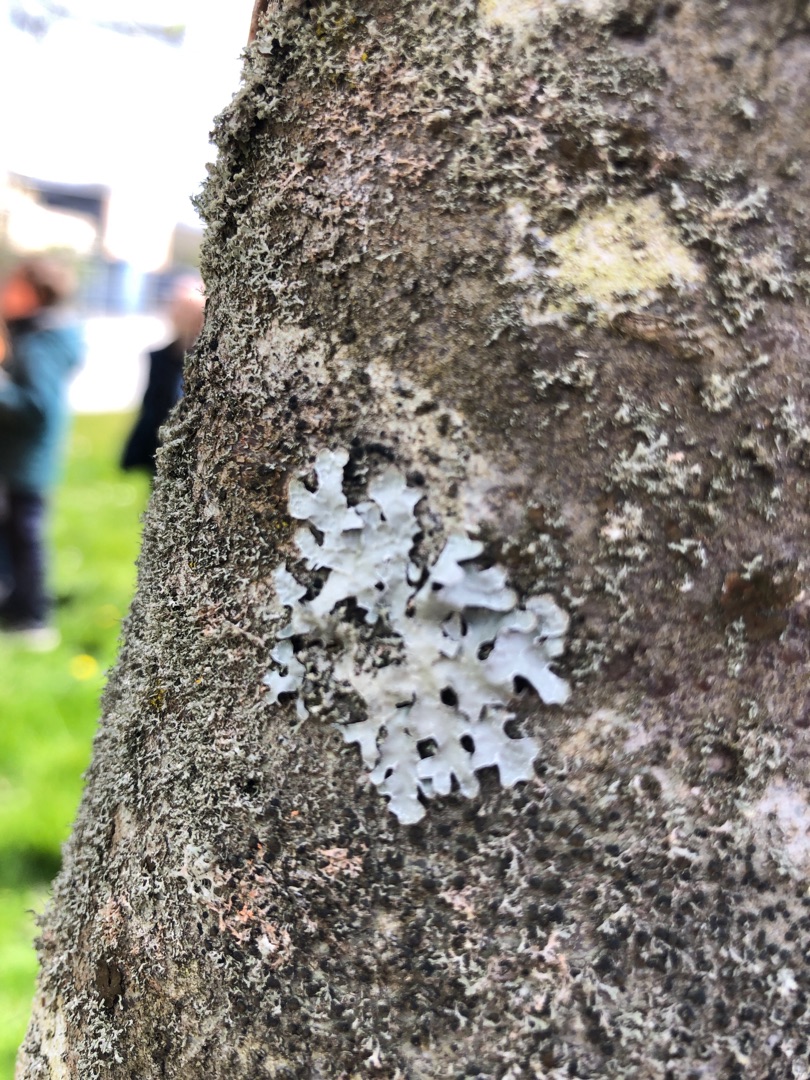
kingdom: Fungi
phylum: Ascomycota
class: Lecanoromycetes
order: Lecanorales
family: Parmeliaceae
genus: Parmelia
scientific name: Parmelia sulcata
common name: Rynket skållav
